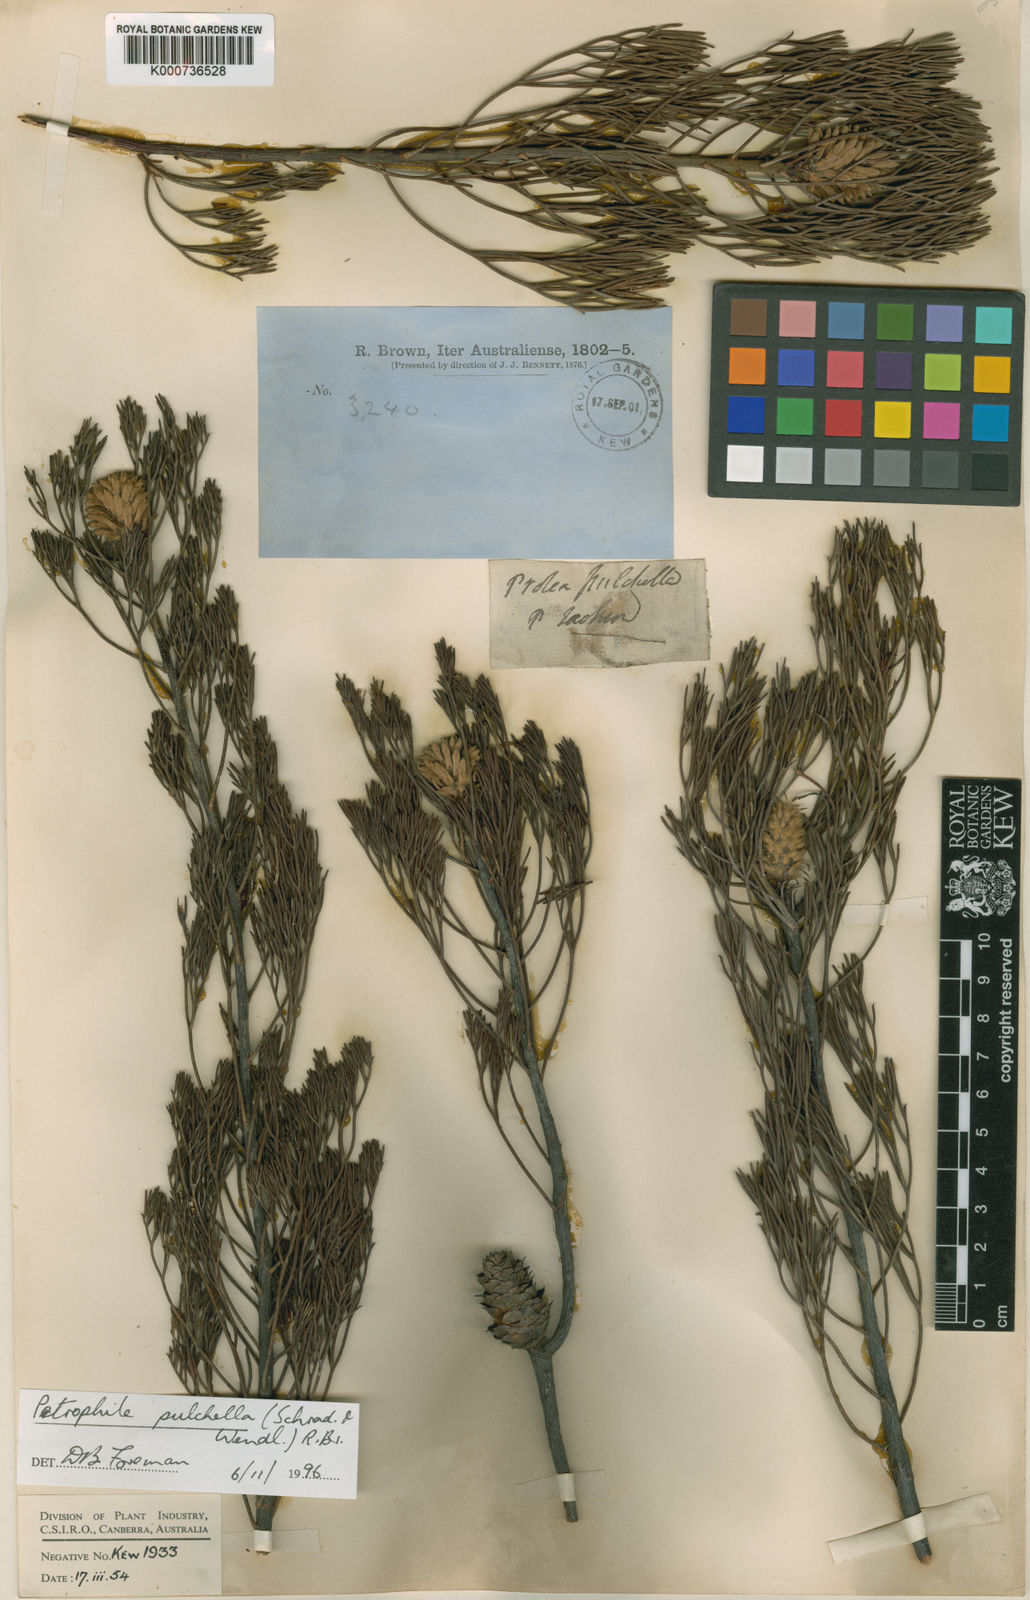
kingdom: Plantae
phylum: Tracheophyta
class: Magnoliopsida
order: Proteales
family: Proteaceae
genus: Petrophile
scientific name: Petrophile pulchella
